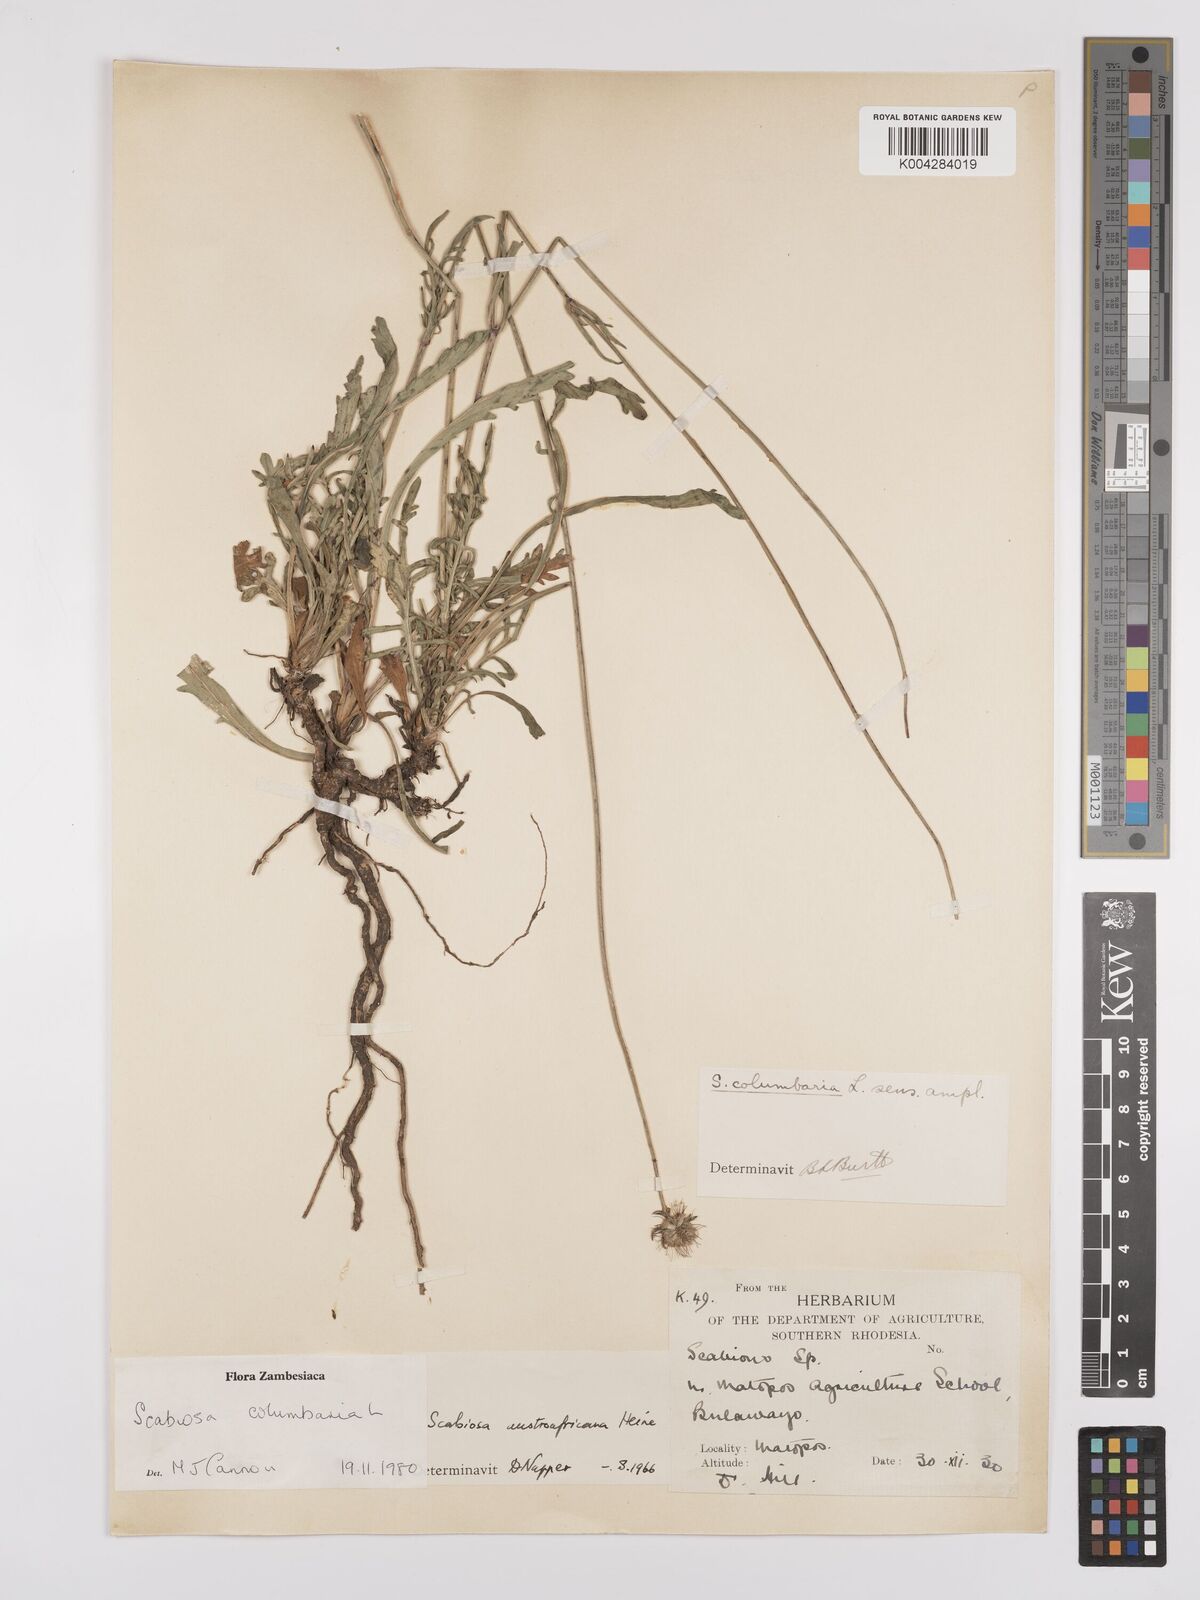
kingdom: Plantae
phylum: Tracheophyta
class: Magnoliopsida
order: Dipsacales
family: Caprifoliaceae
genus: Scabiosa
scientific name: Scabiosa austroafricana
